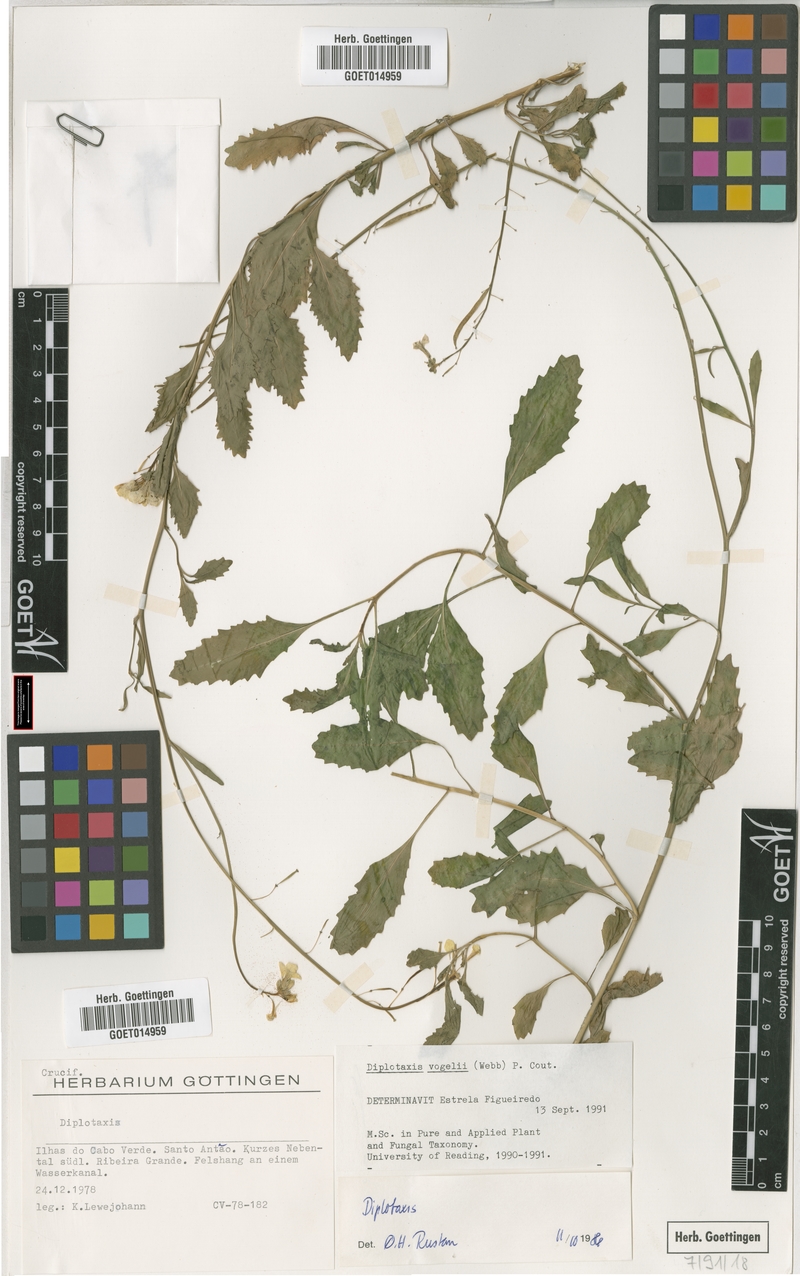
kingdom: Plantae
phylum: Tracheophyta
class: Magnoliopsida
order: Brassicales
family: Brassicaceae
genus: Diplotaxis
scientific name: Diplotaxis vogelii
